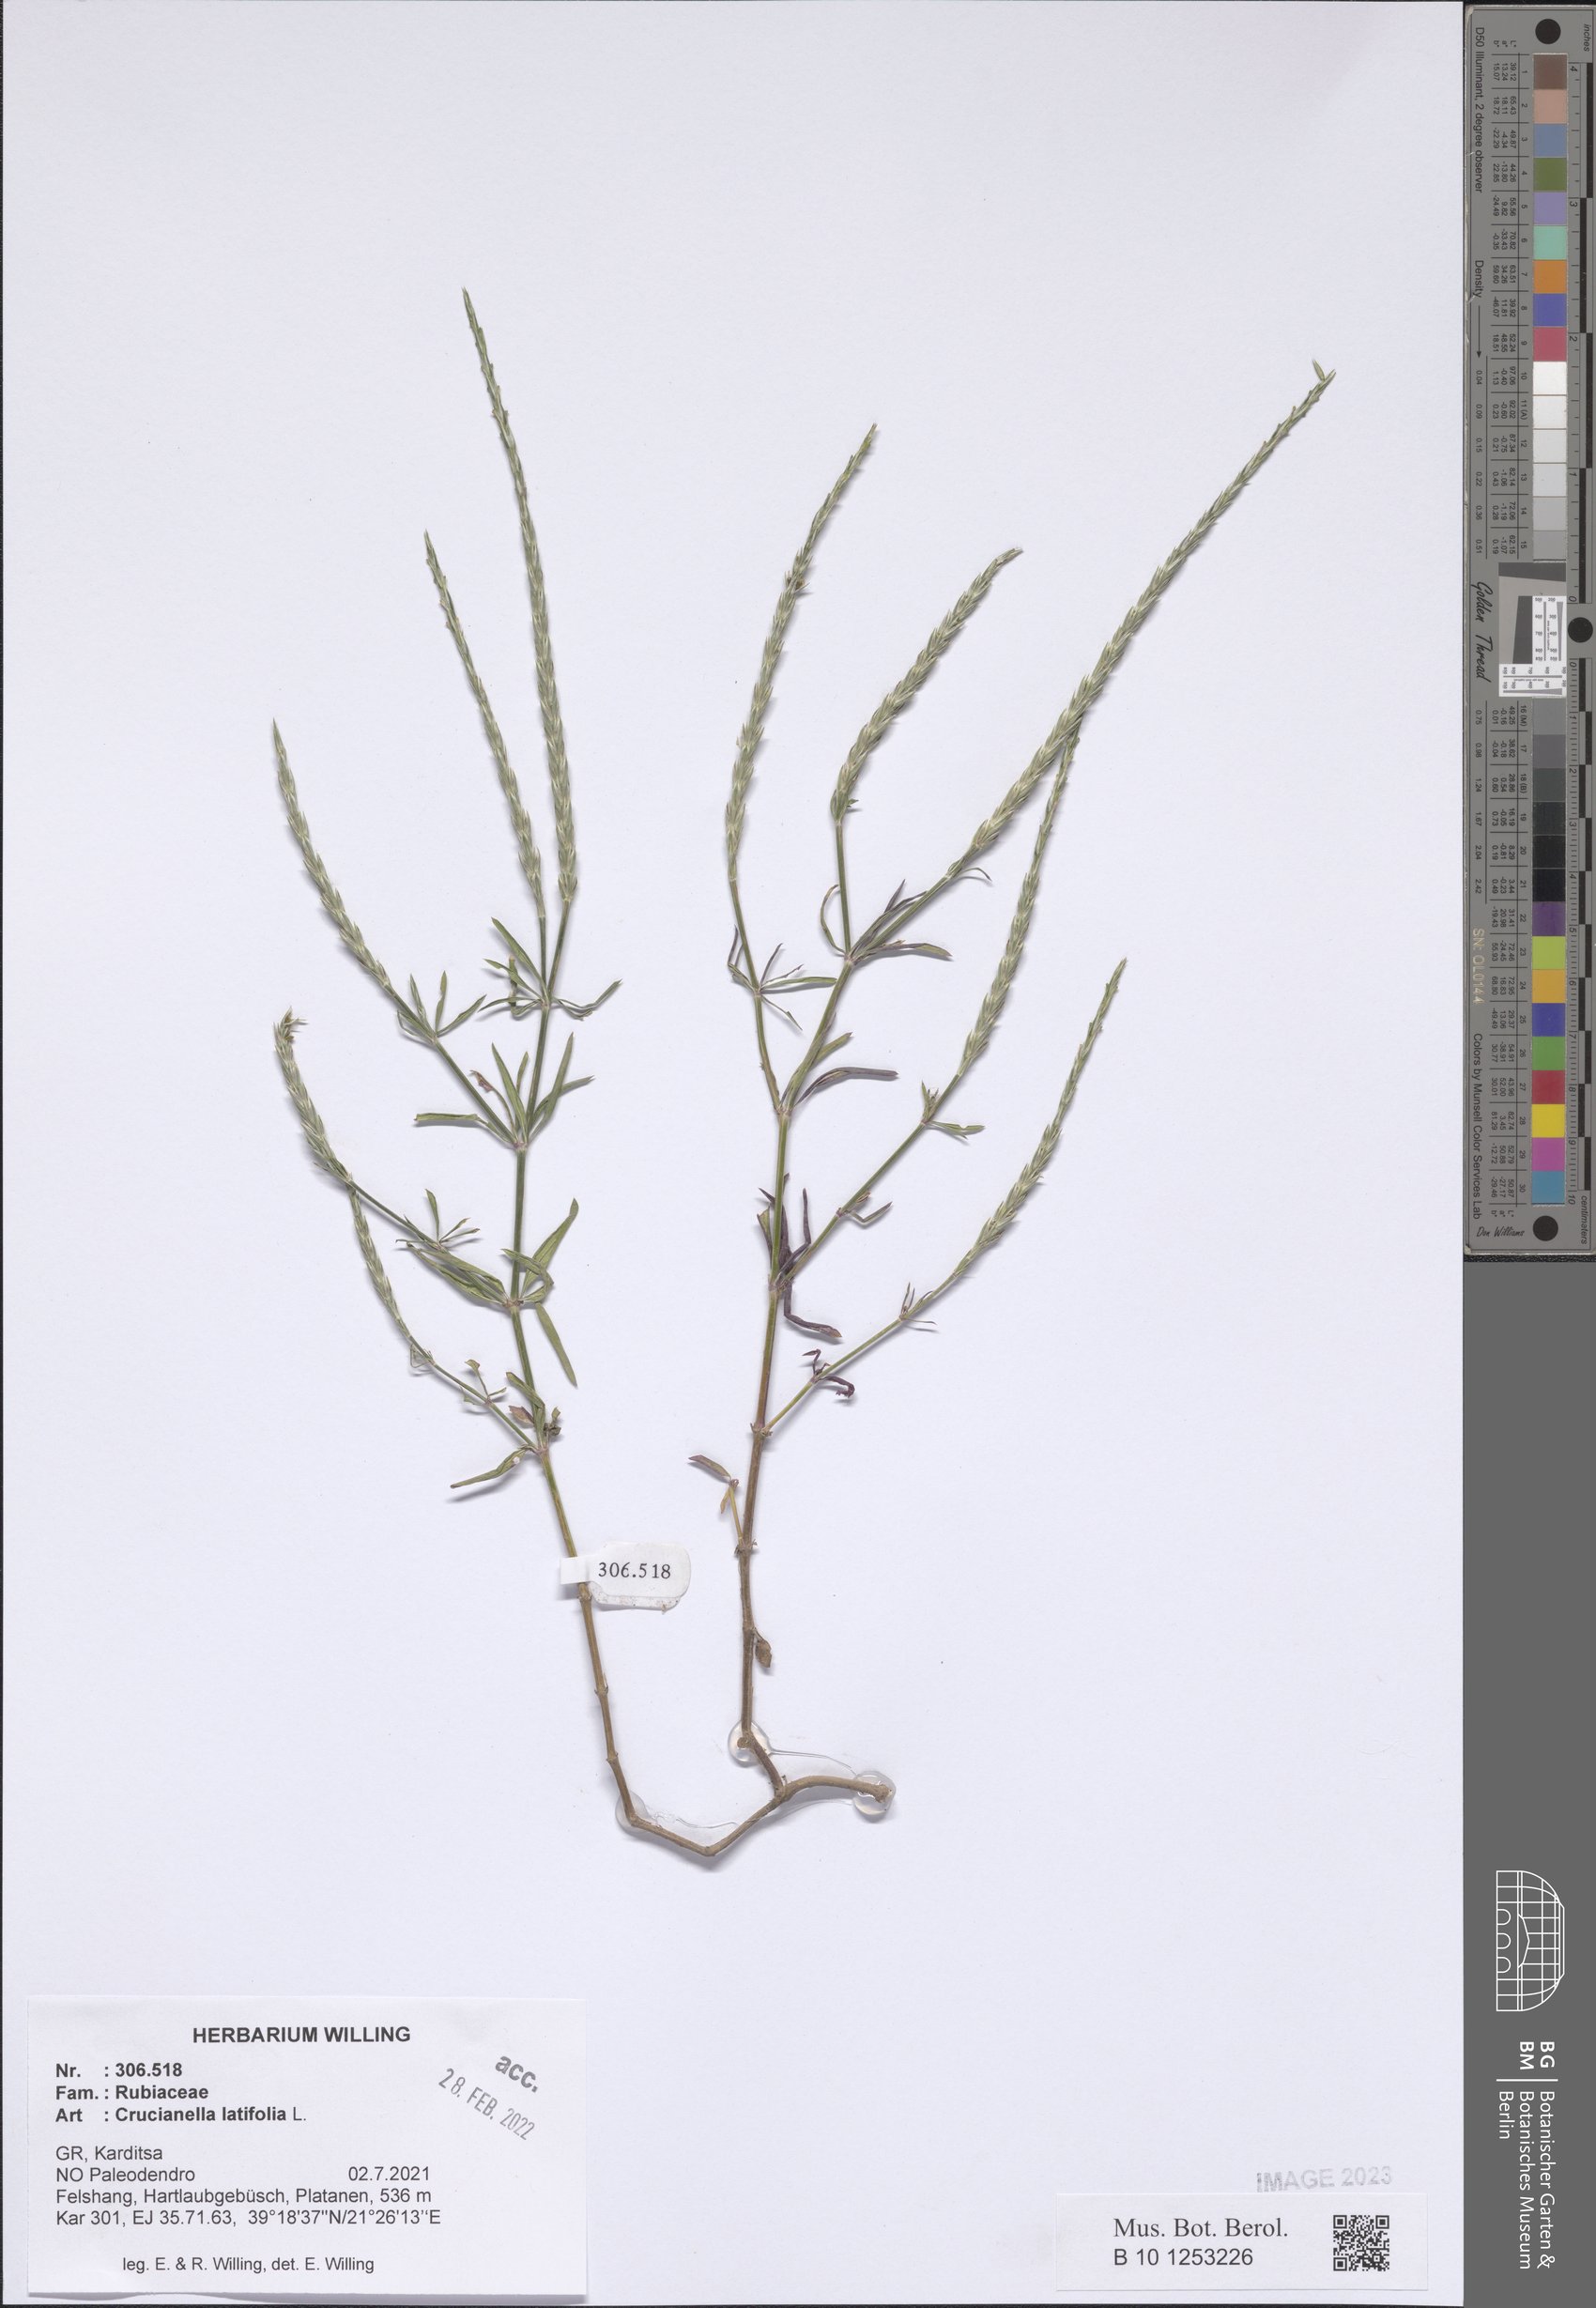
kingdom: Plantae
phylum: Tracheophyta
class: Magnoliopsida
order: Gentianales
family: Rubiaceae
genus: Crucianella
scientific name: Crucianella latifolia
